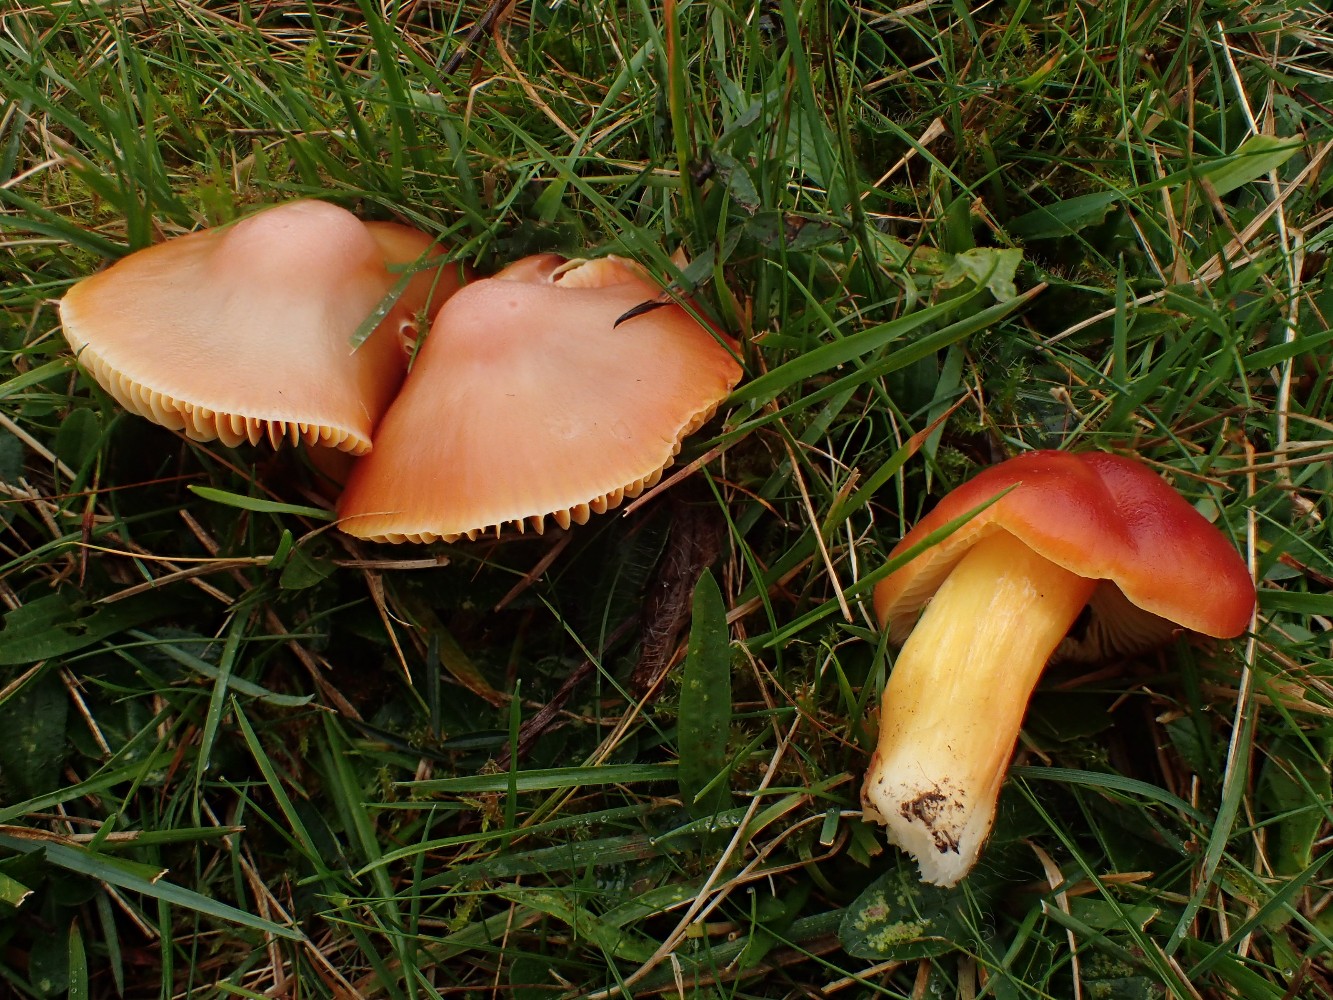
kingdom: Fungi
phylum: Basidiomycota
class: Agaricomycetes
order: Agaricales
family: Hygrophoraceae
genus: Hygrocybe
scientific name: Hygrocybe punicea
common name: skarlagen-vokshat
